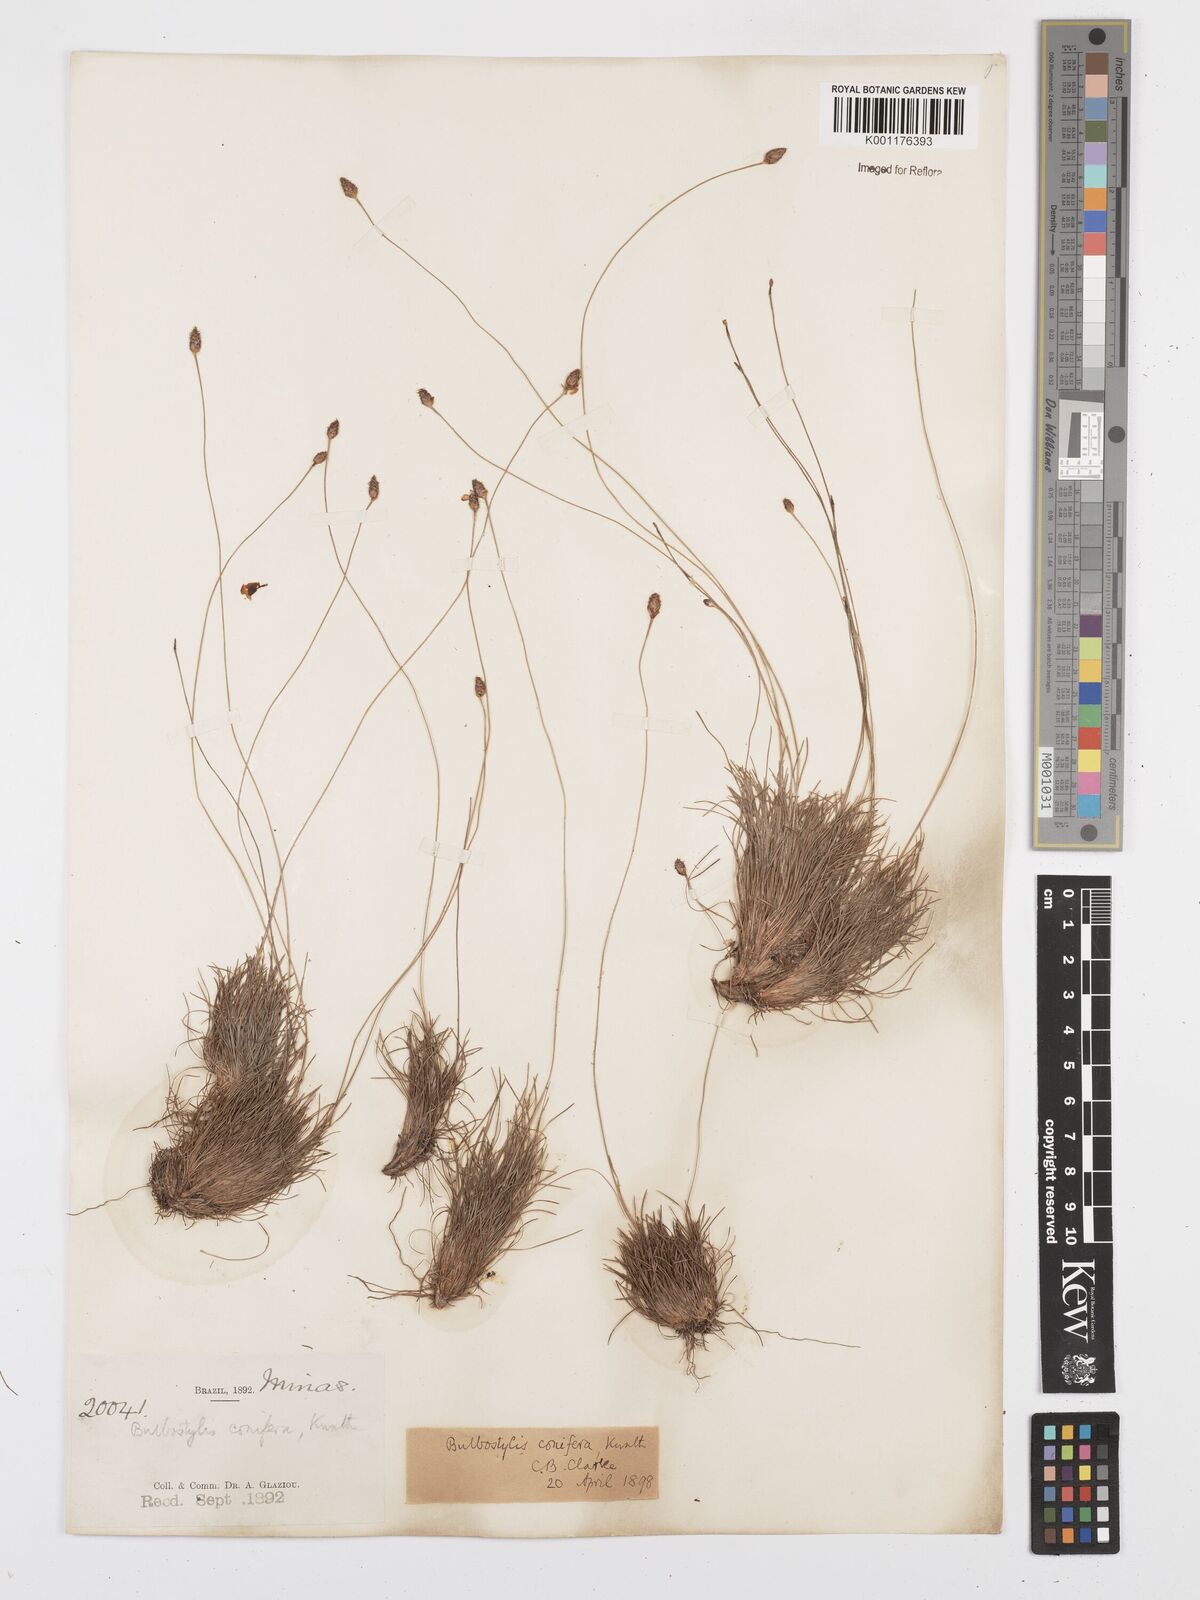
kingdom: Plantae
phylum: Tracheophyta
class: Liliopsida
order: Poales
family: Cyperaceae
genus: Bulbostylis
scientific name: Bulbostylis conifera
